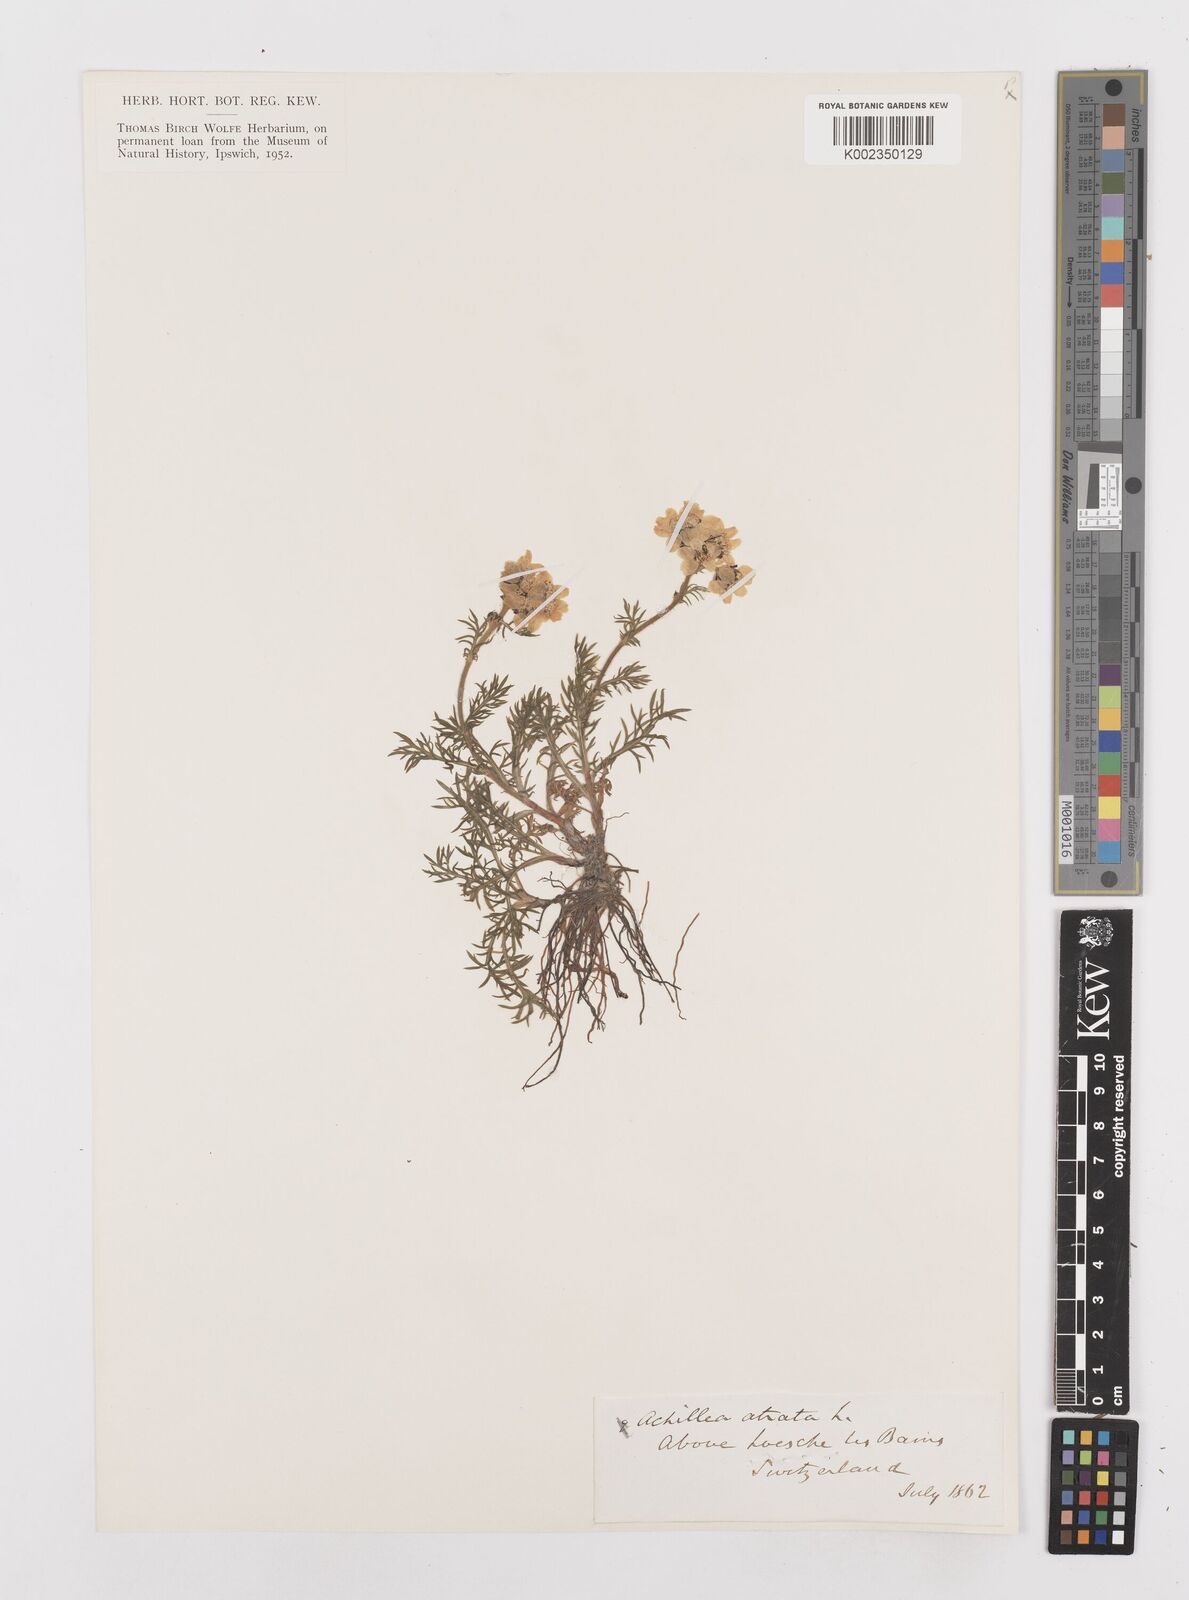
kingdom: Plantae
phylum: Tracheophyta
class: Magnoliopsida
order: Asterales
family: Asteraceae
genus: Achillea
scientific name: Achillea atrata
